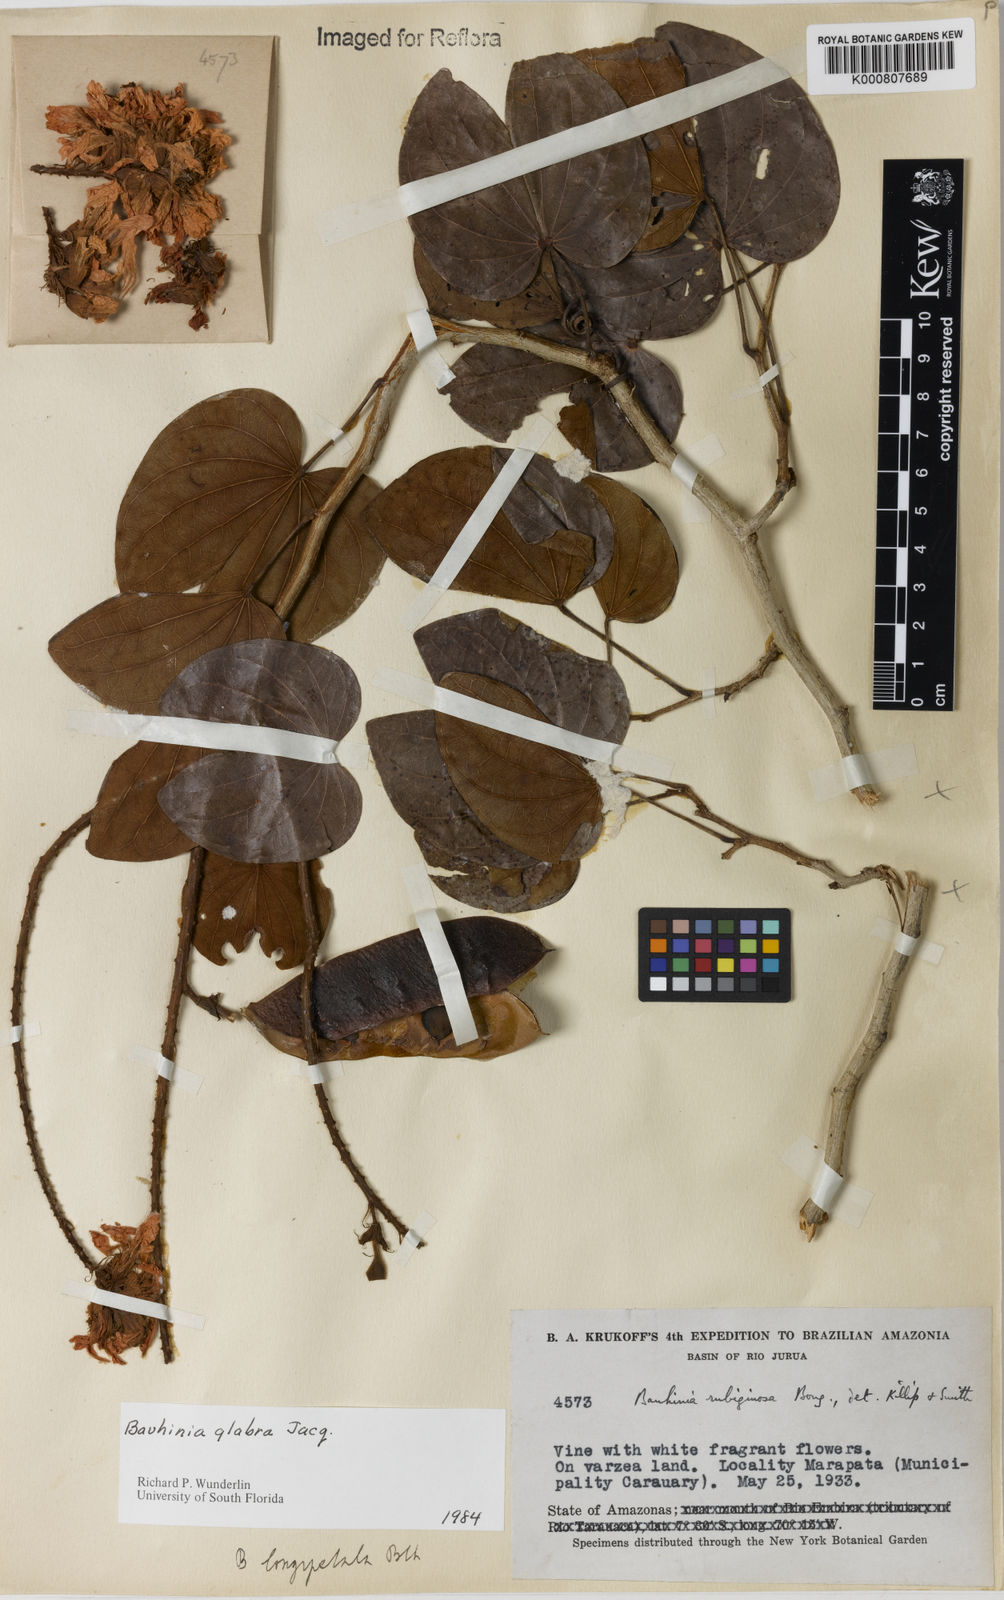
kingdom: Plantae
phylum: Tracheophyta
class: Magnoliopsida
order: Fabales
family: Fabaceae
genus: Schnella
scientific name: Schnella glabra
